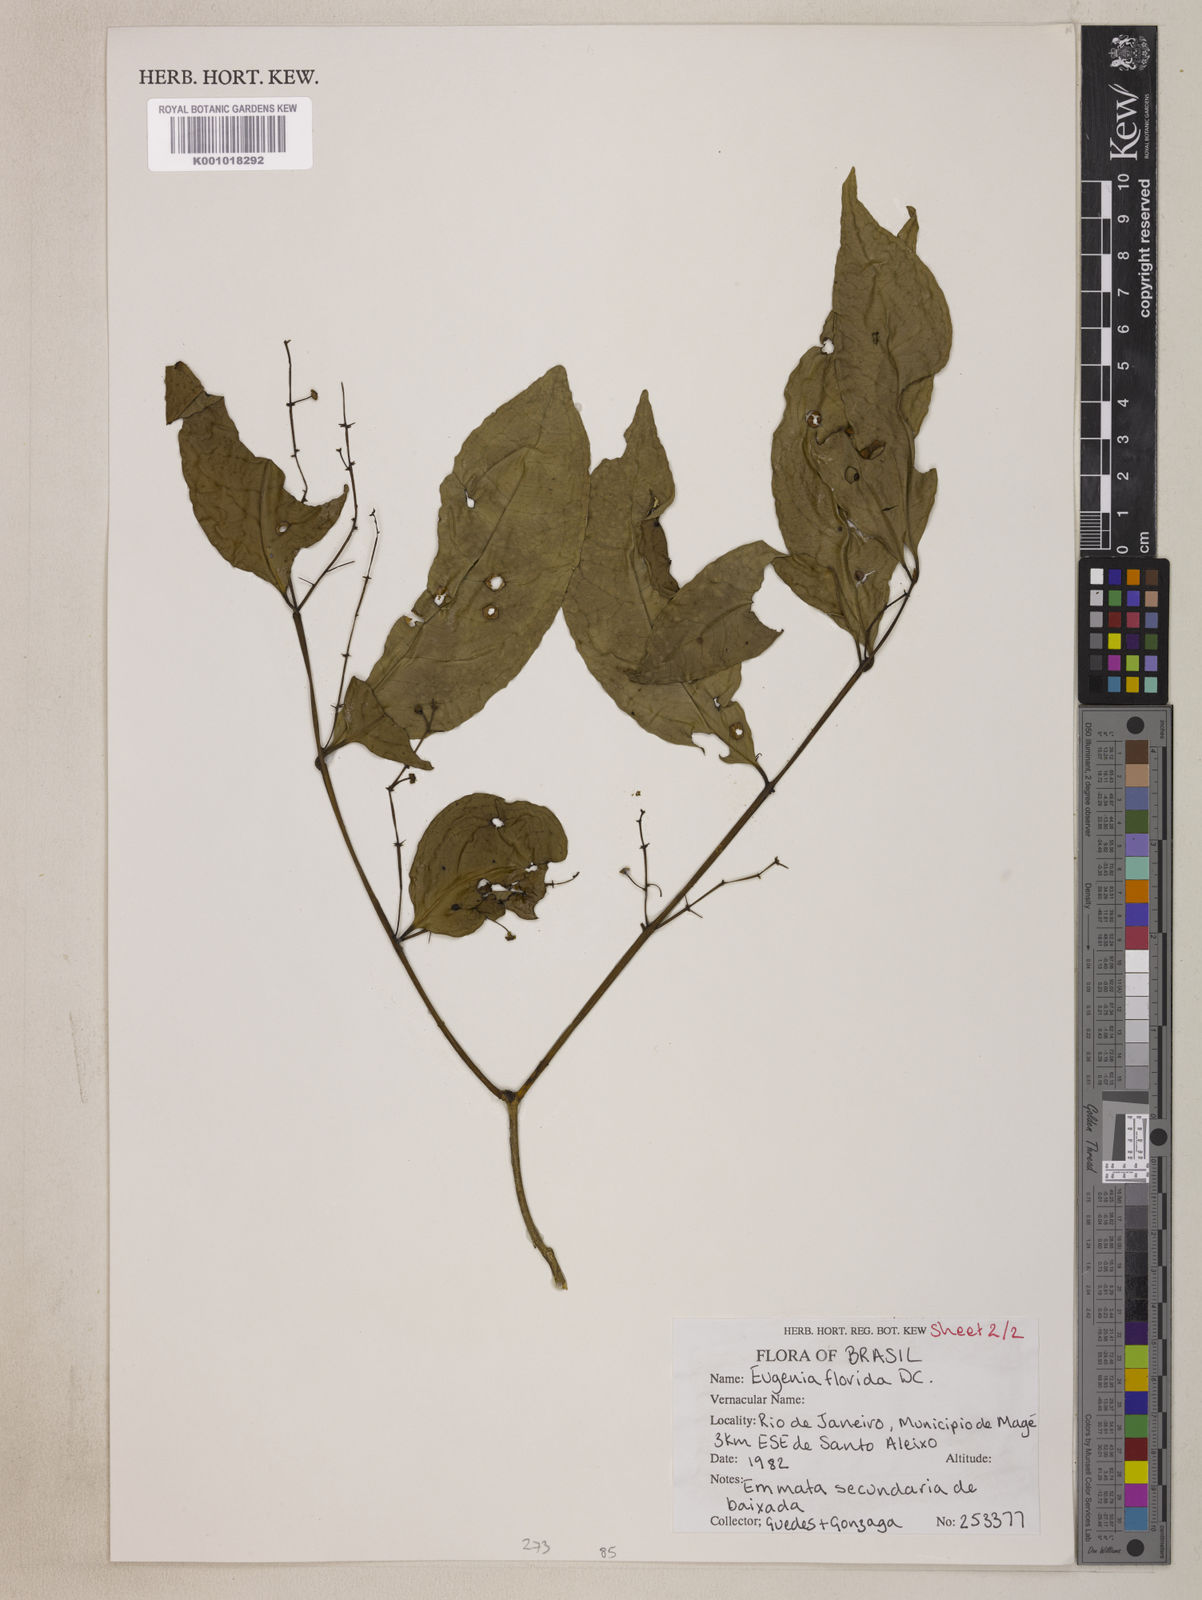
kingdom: Plantae
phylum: Tracheophyta
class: Magnoliopsida
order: Myrtales
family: Myrtaceae
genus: Eugenia
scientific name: Eugenia florida
